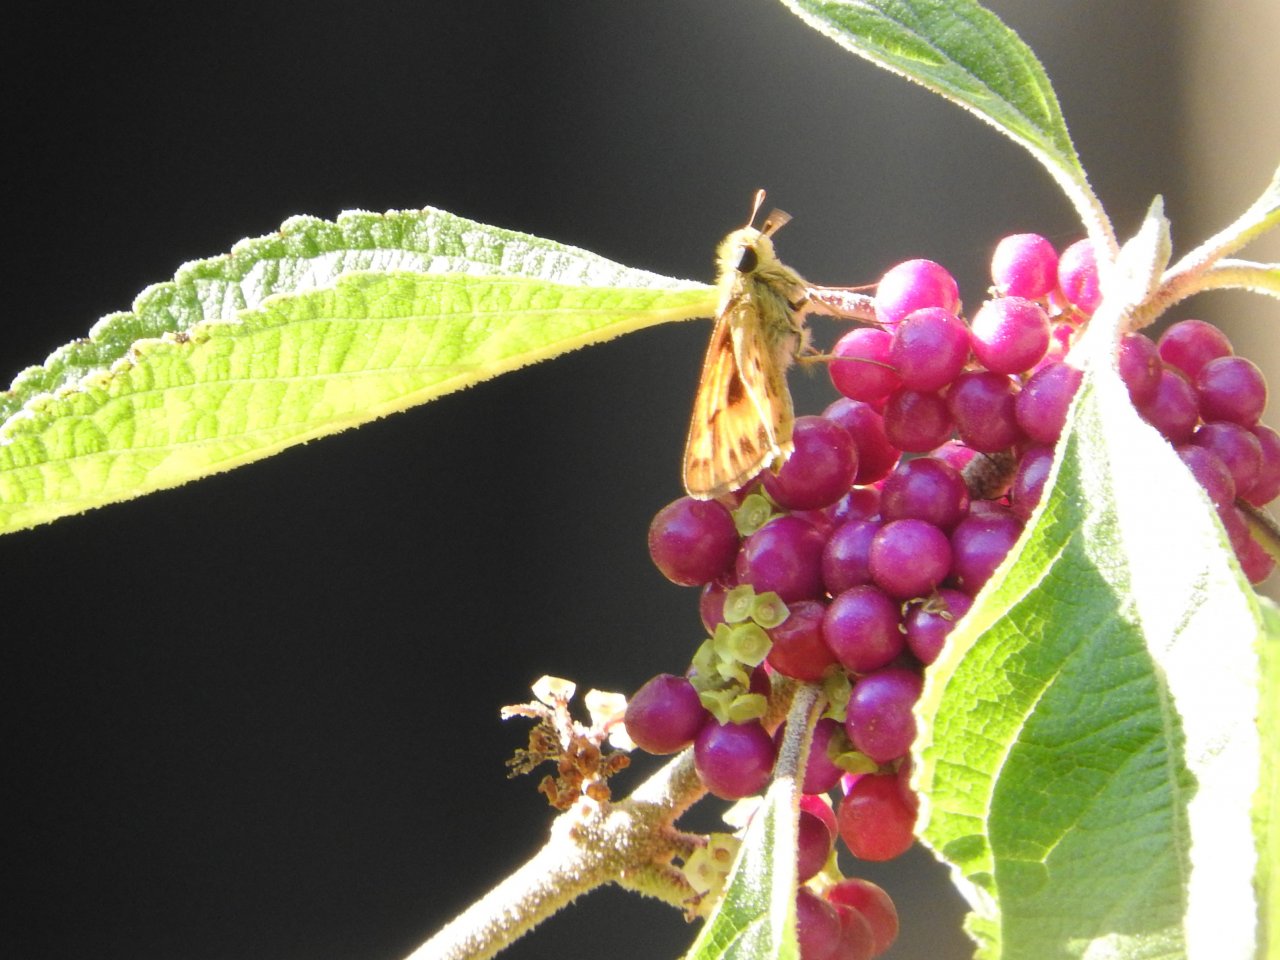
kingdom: Animalia
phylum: Arthropoda
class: Insecta
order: Lepidoptera
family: Hesperiidae
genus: Hylephila
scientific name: Hylephila phyleus
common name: Fiery Skipper
